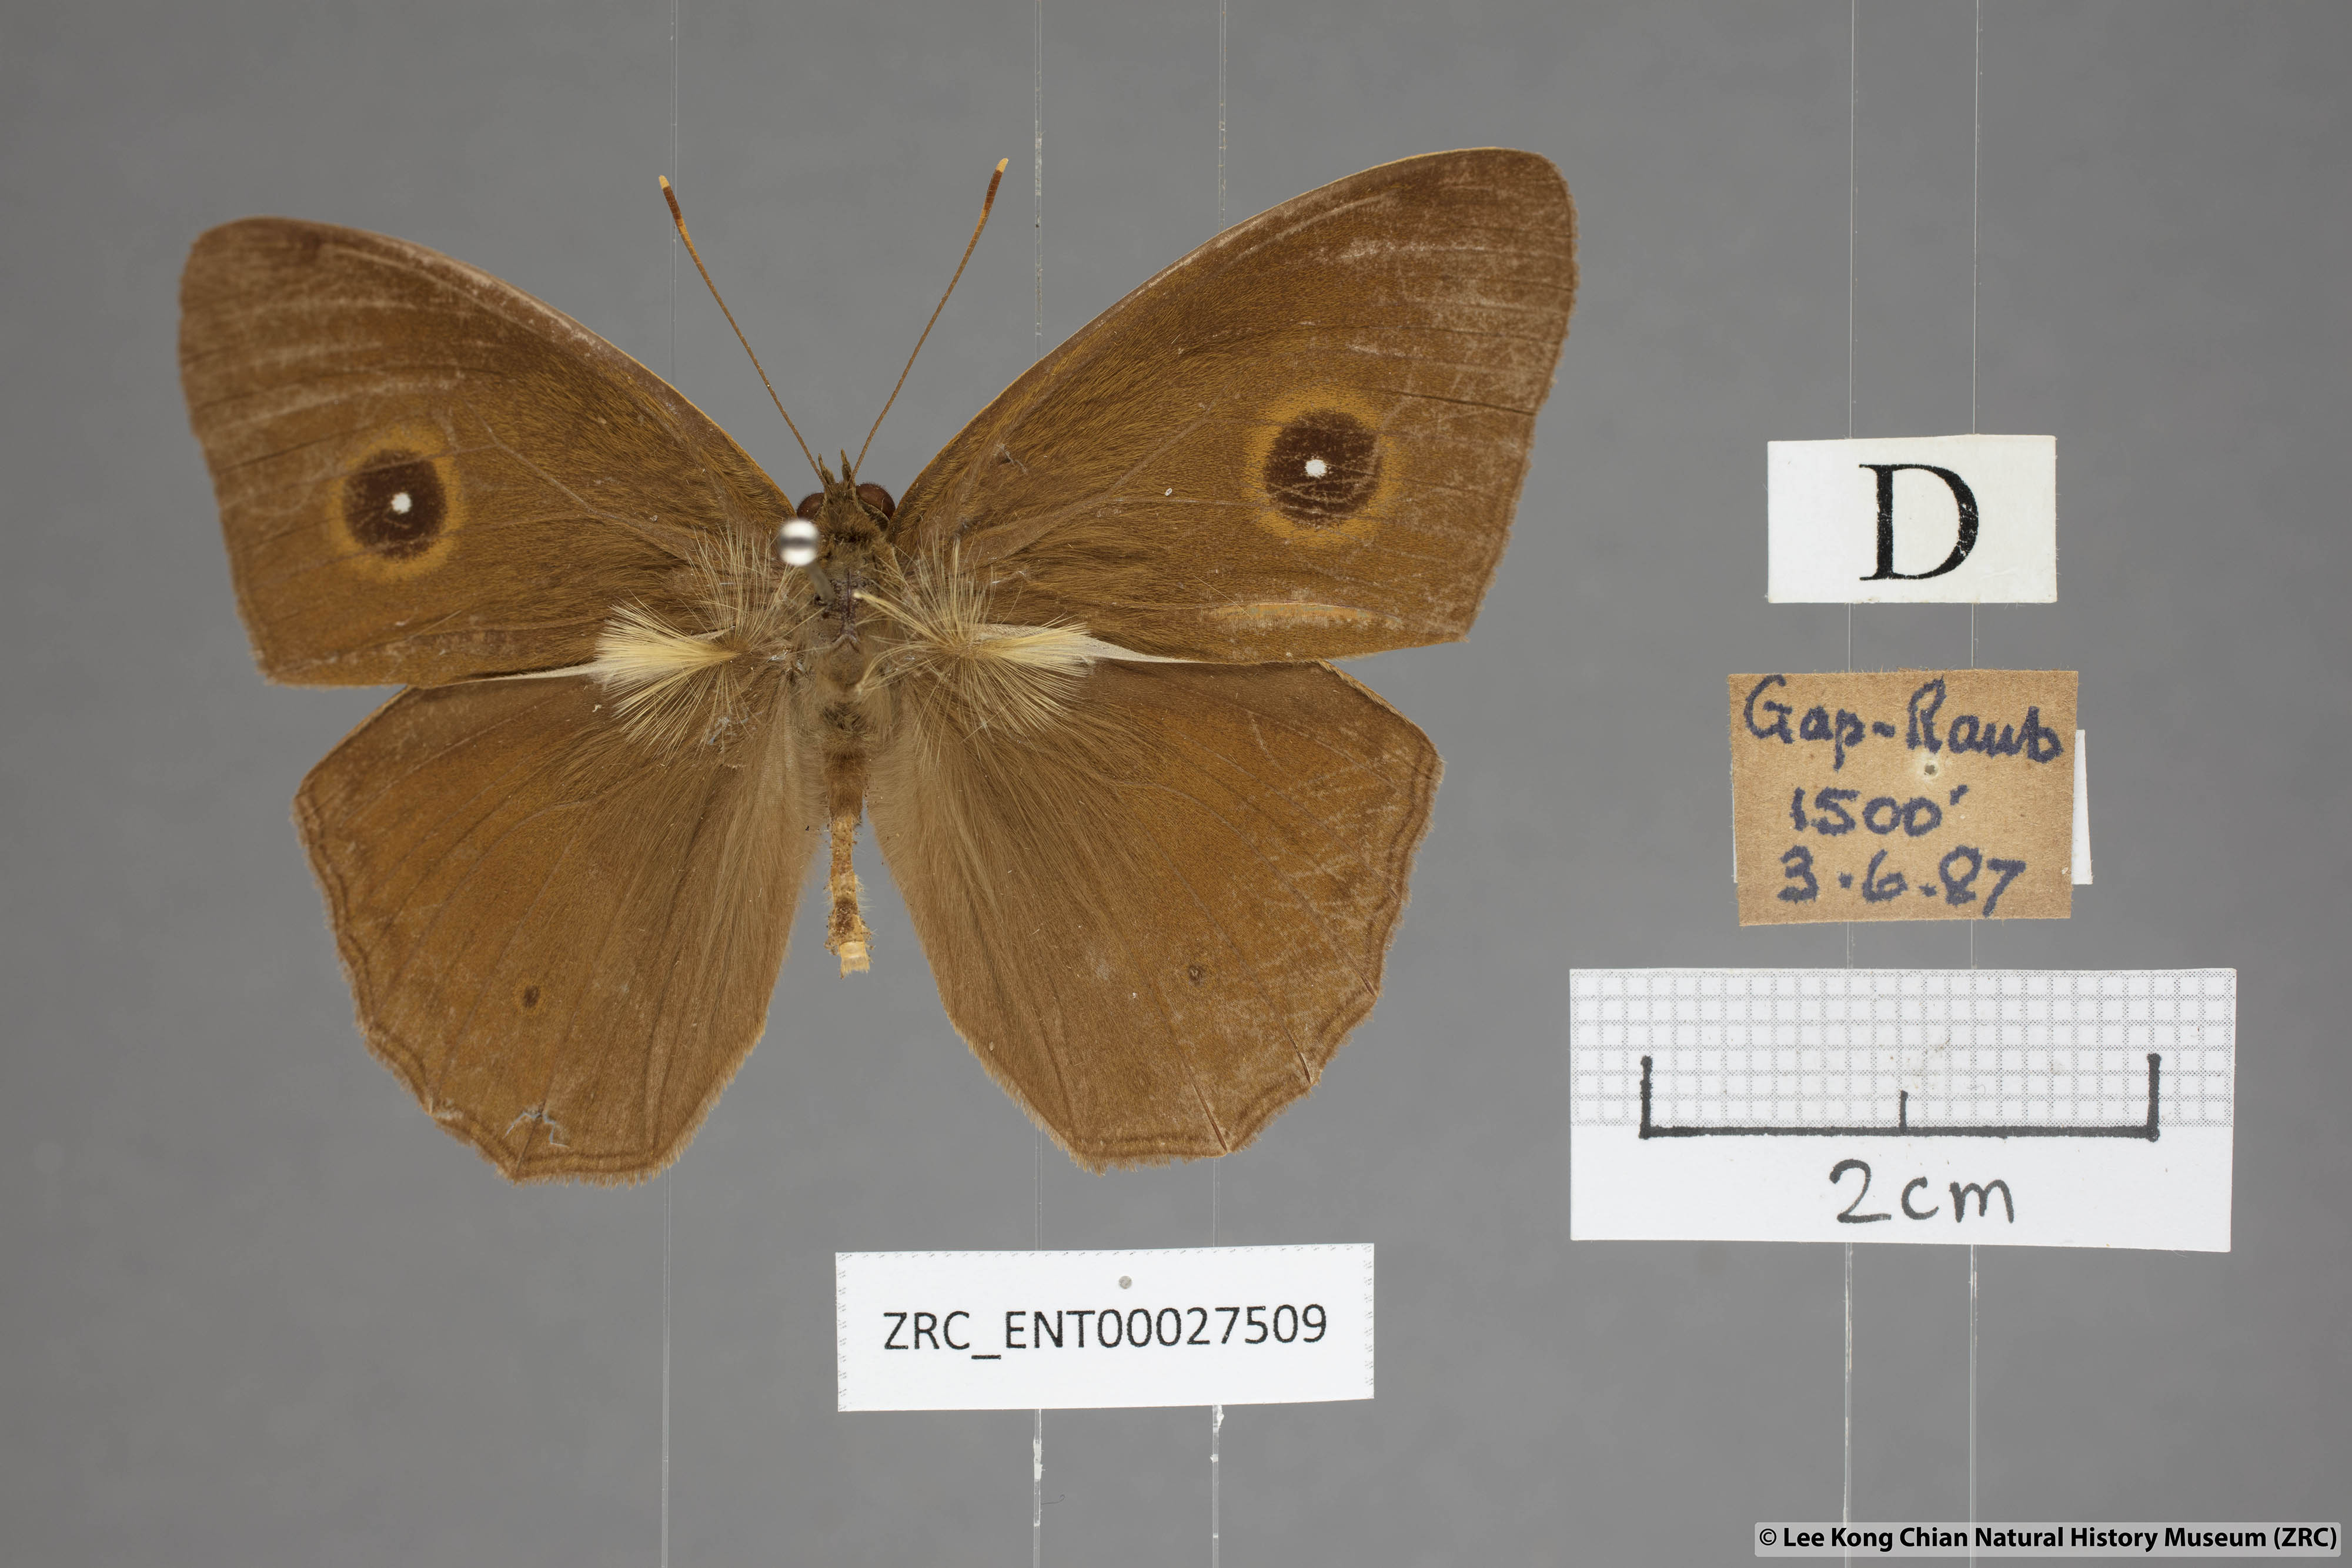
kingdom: Animalia
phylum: Arthropoda
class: Insecta
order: Lepidoptera
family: Nymphalidae
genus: Mycalesis
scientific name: Mycalesis mnasicles
